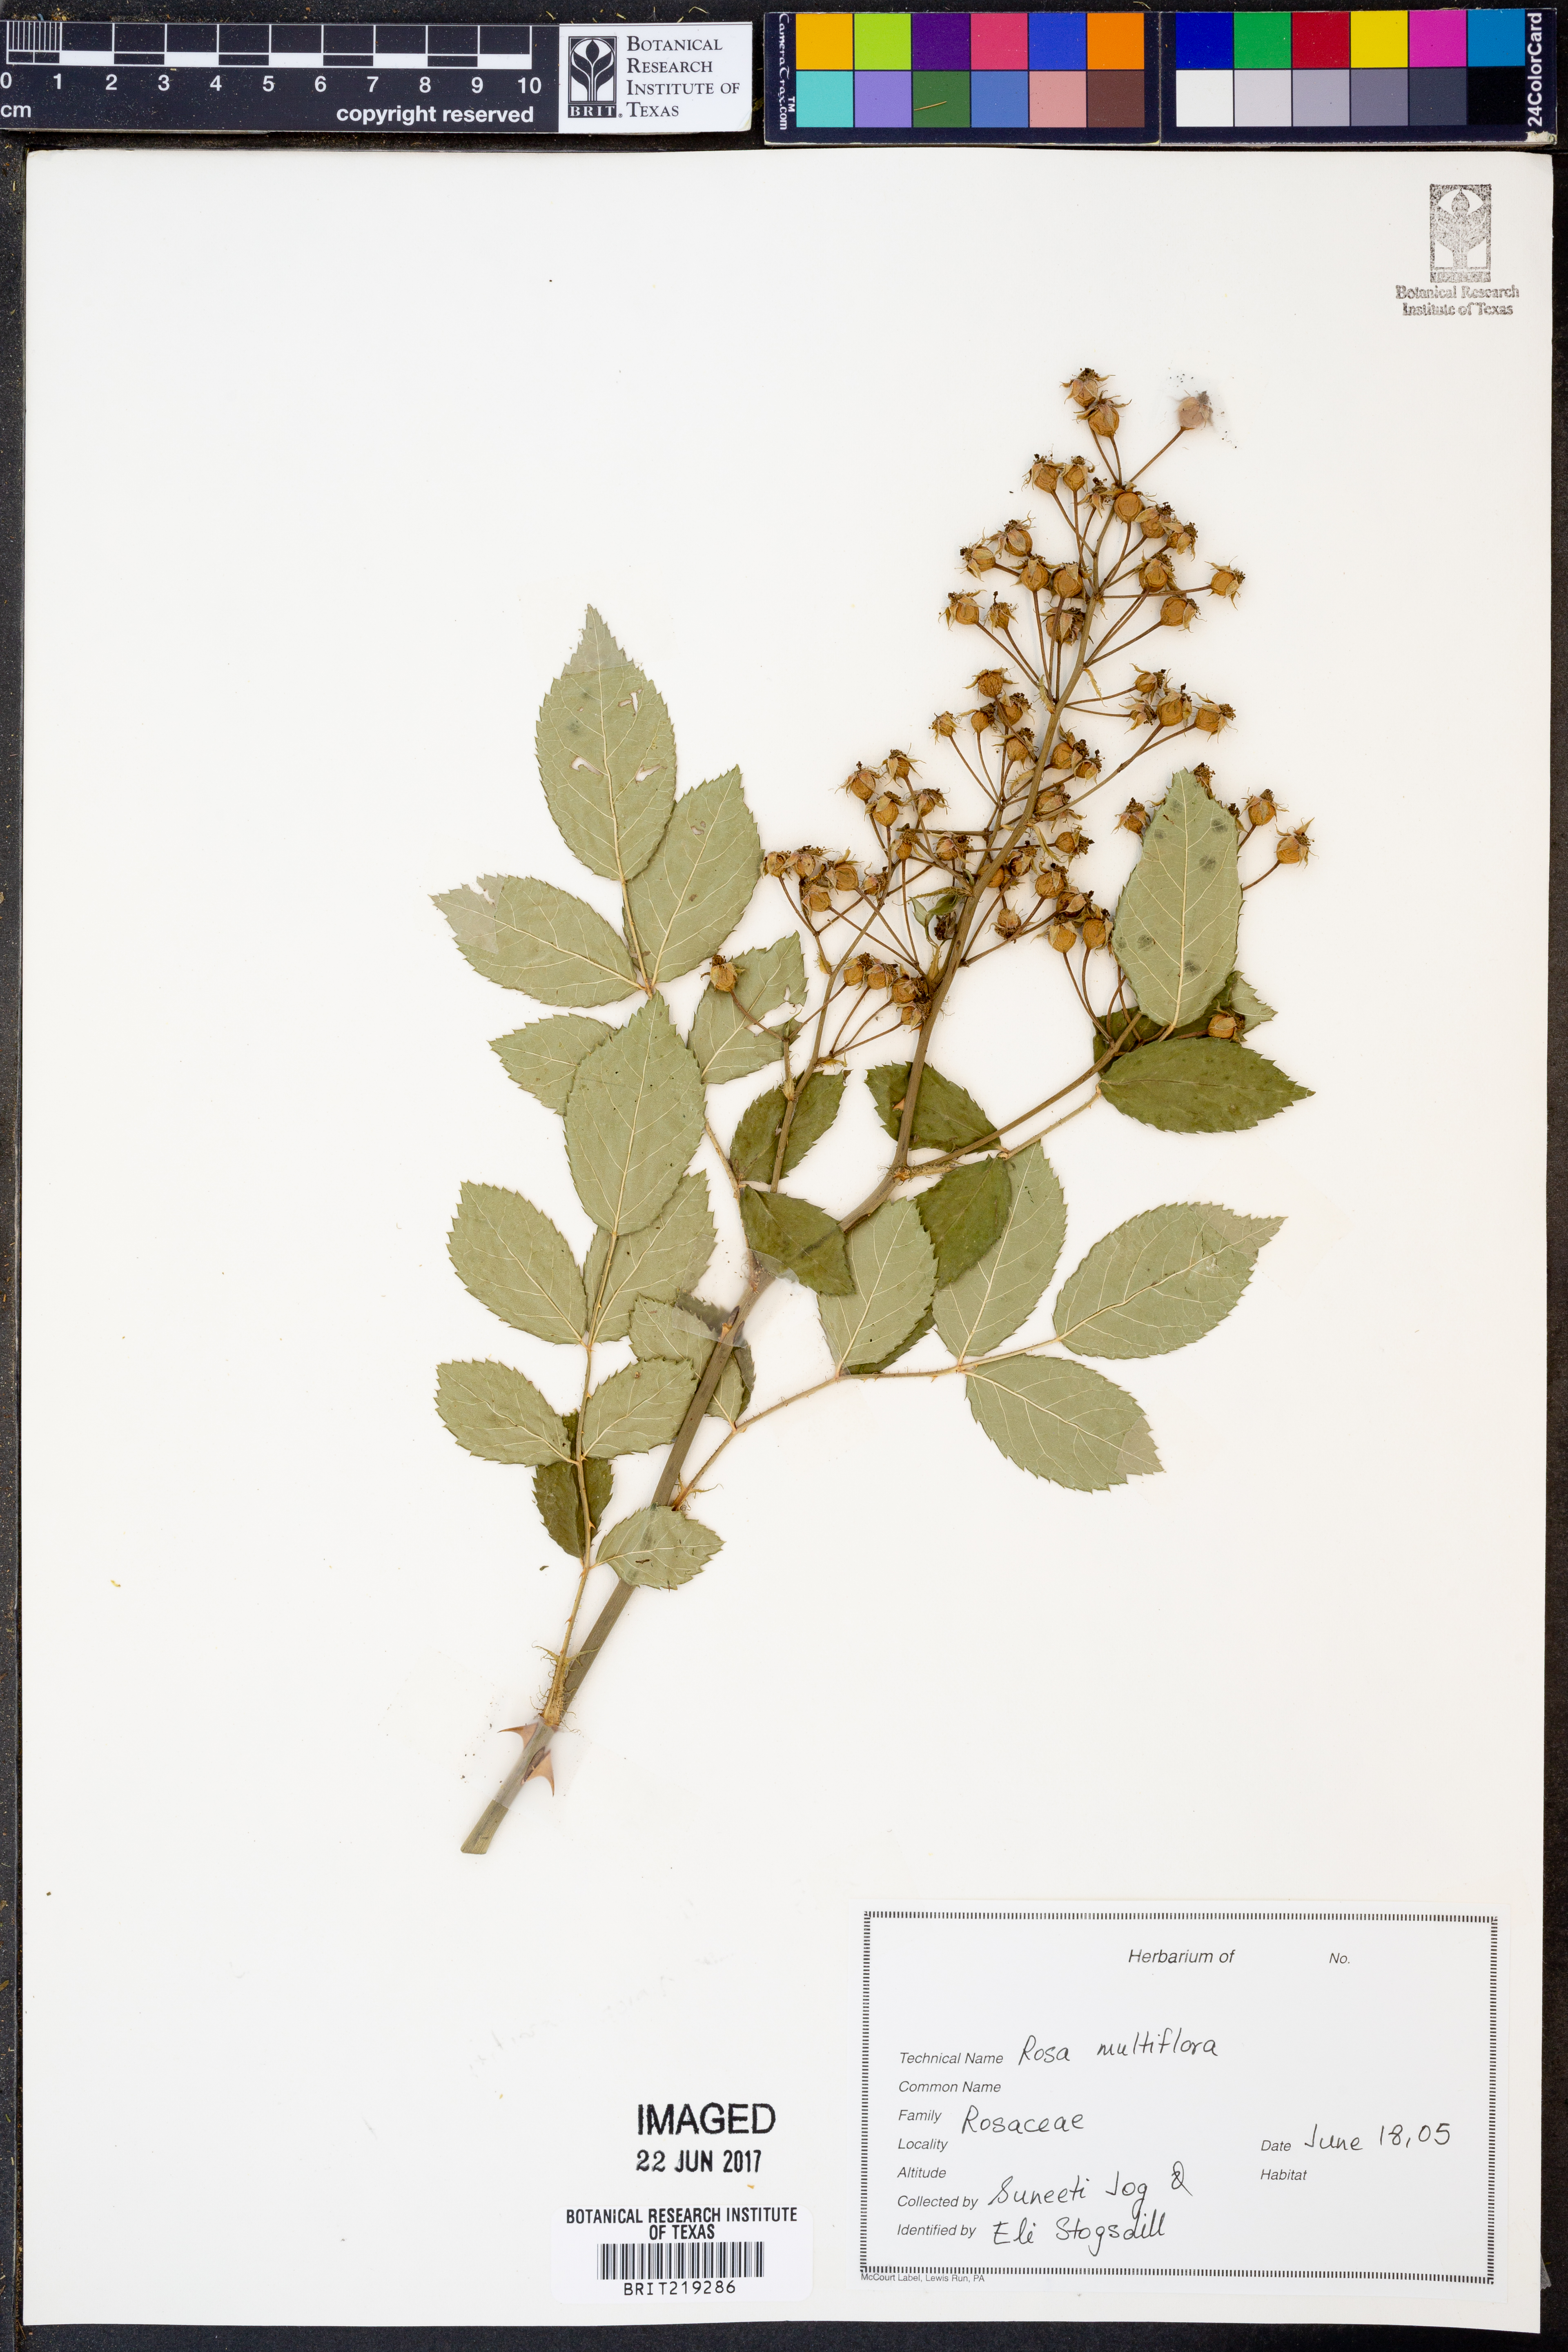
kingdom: Plantae
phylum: Tracheophyta
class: Magnoliopsida
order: Rosales
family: Rosaceae
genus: Rosa
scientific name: Rosa multiflora
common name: Multiflora rose
